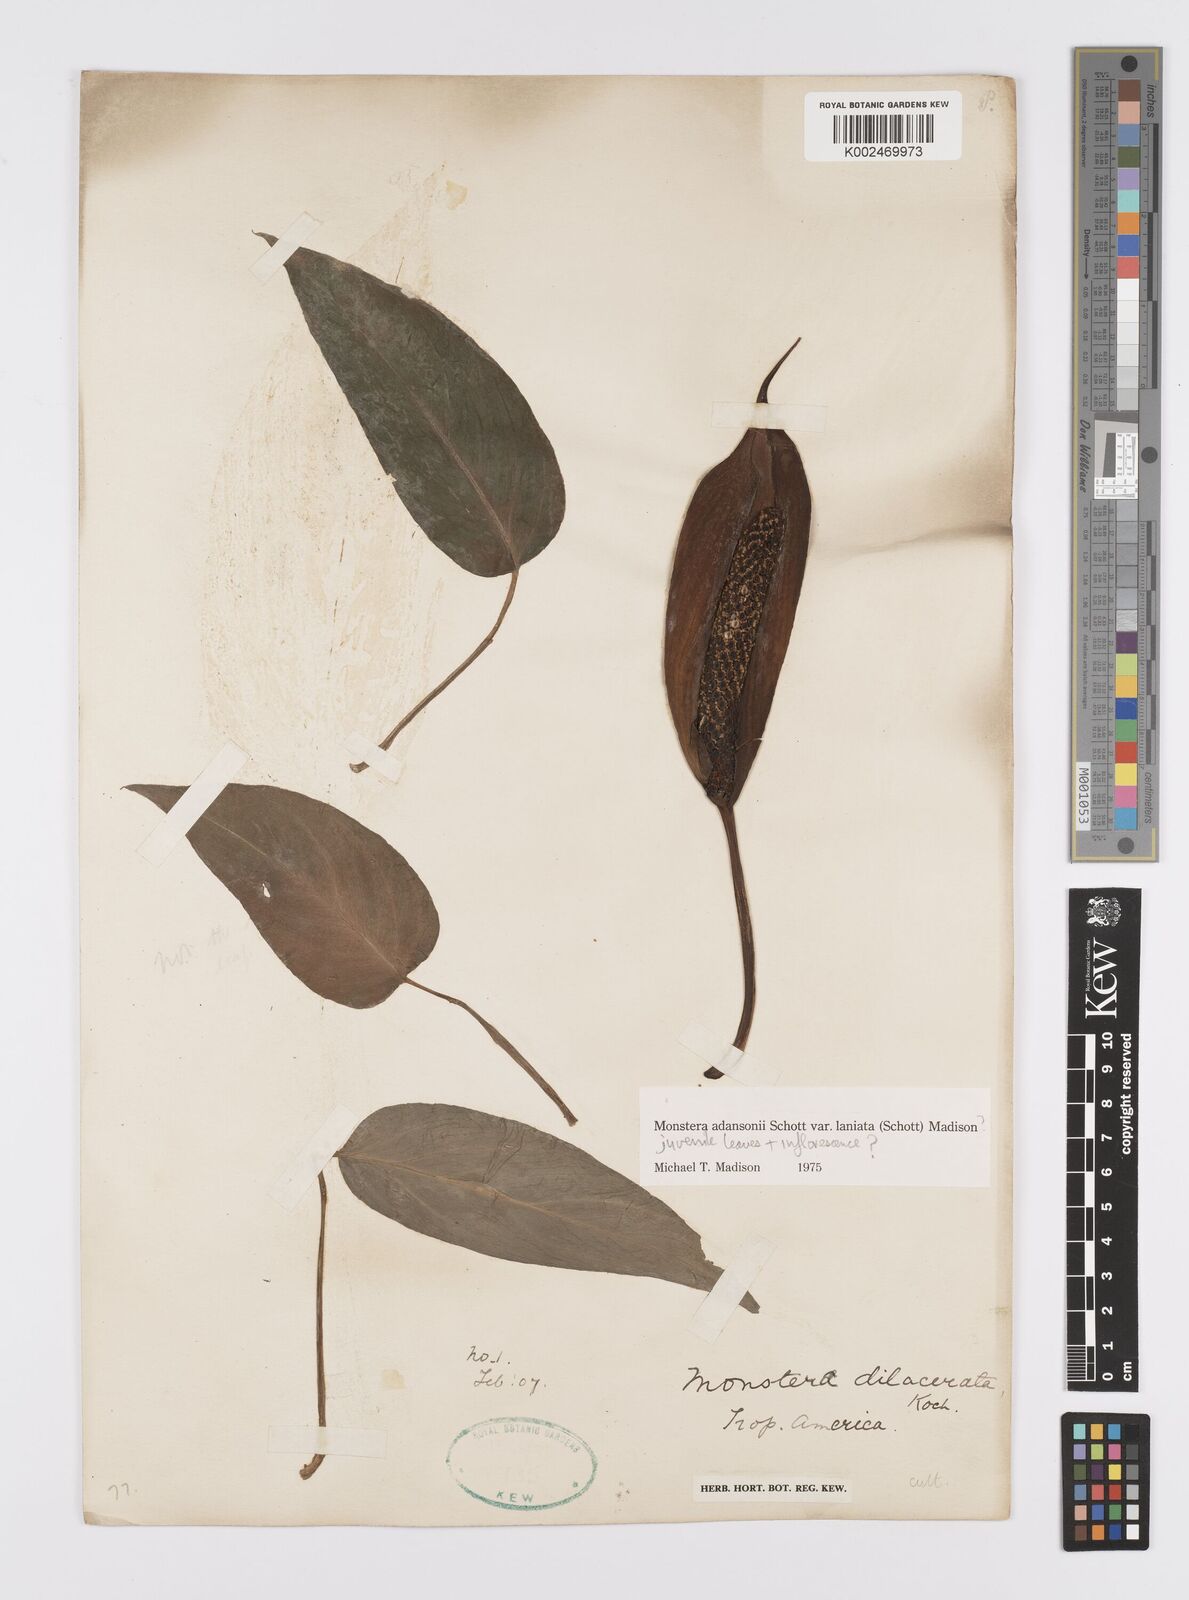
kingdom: Plantae
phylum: Tracheophyta
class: Liliopsida
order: Alismatales
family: Araceae
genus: Monstera
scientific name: Monstera adansonii
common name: Tarovine
